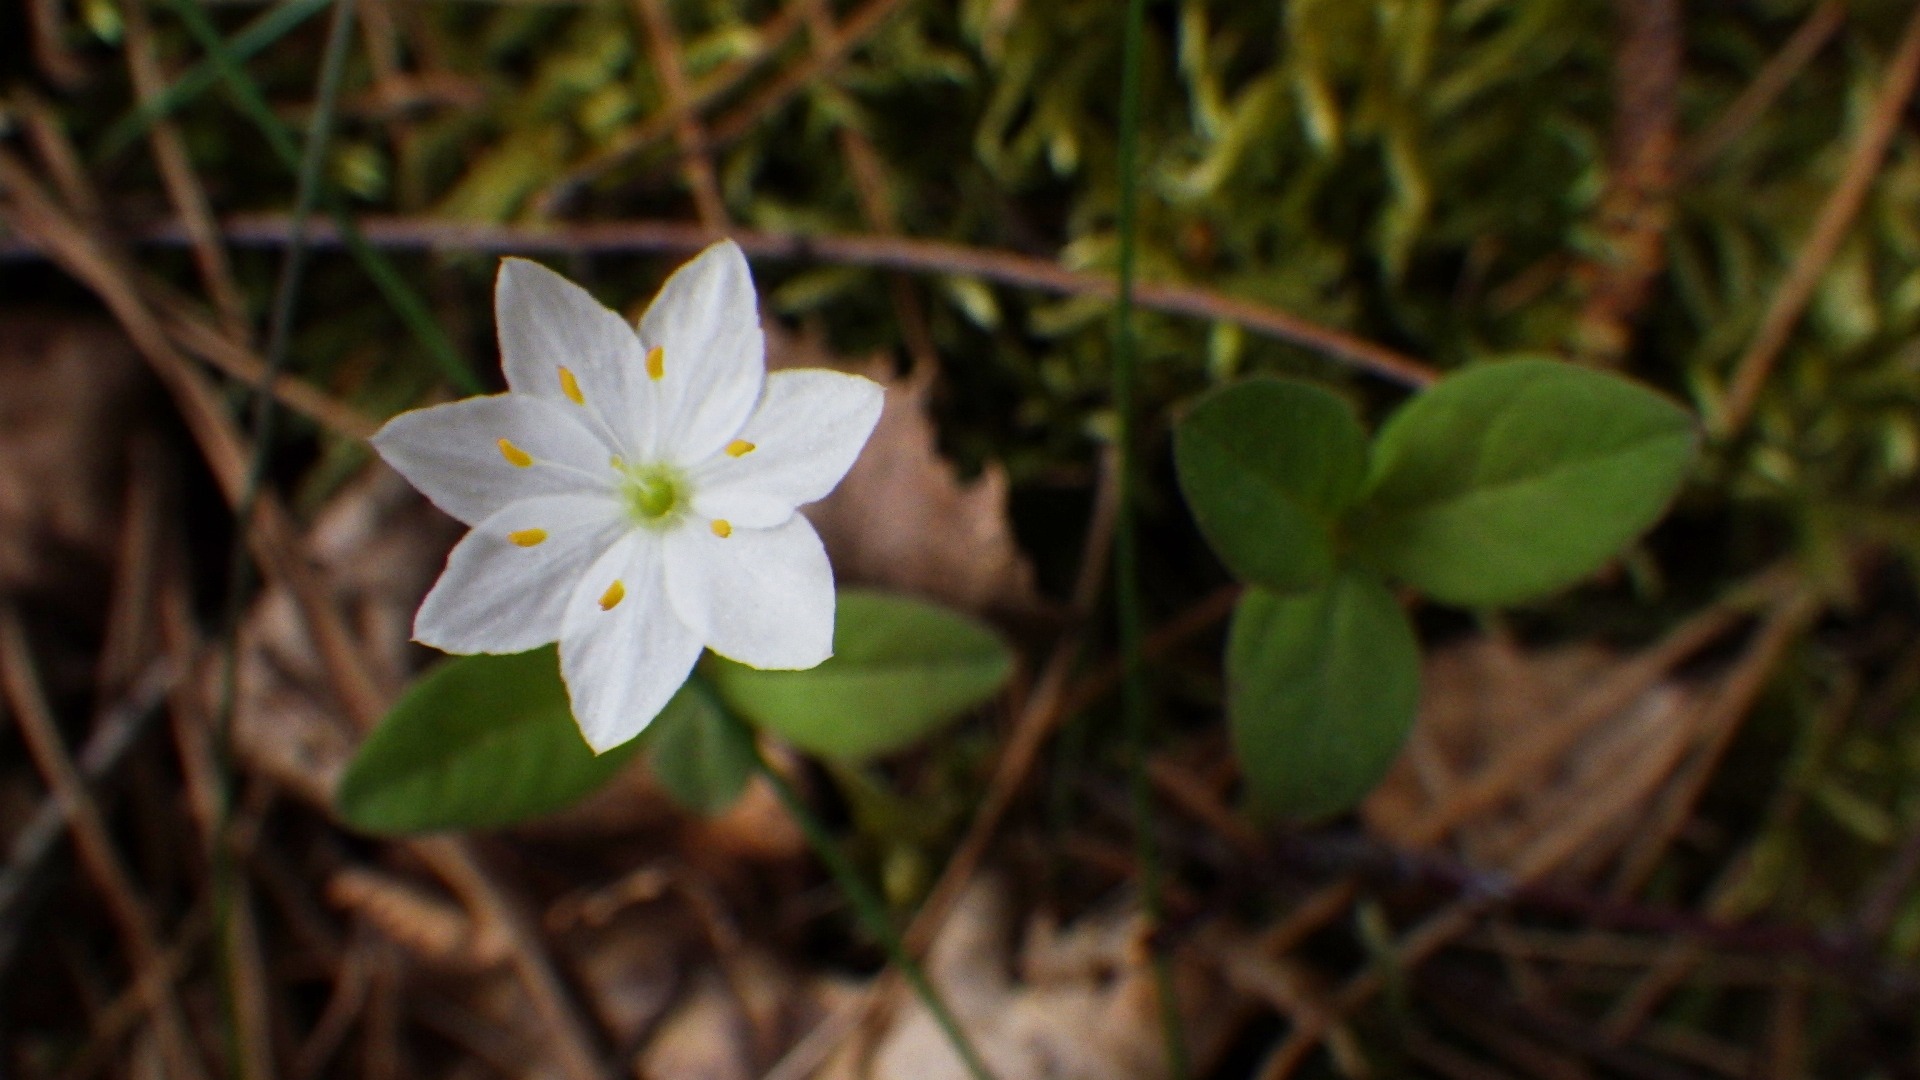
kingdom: Plantae
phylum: Tracheophyta
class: Magnoliopsida
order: Ericales
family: Primulaceae
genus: Lysimachia
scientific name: Lysimachia europaea
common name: Skovstjerne
